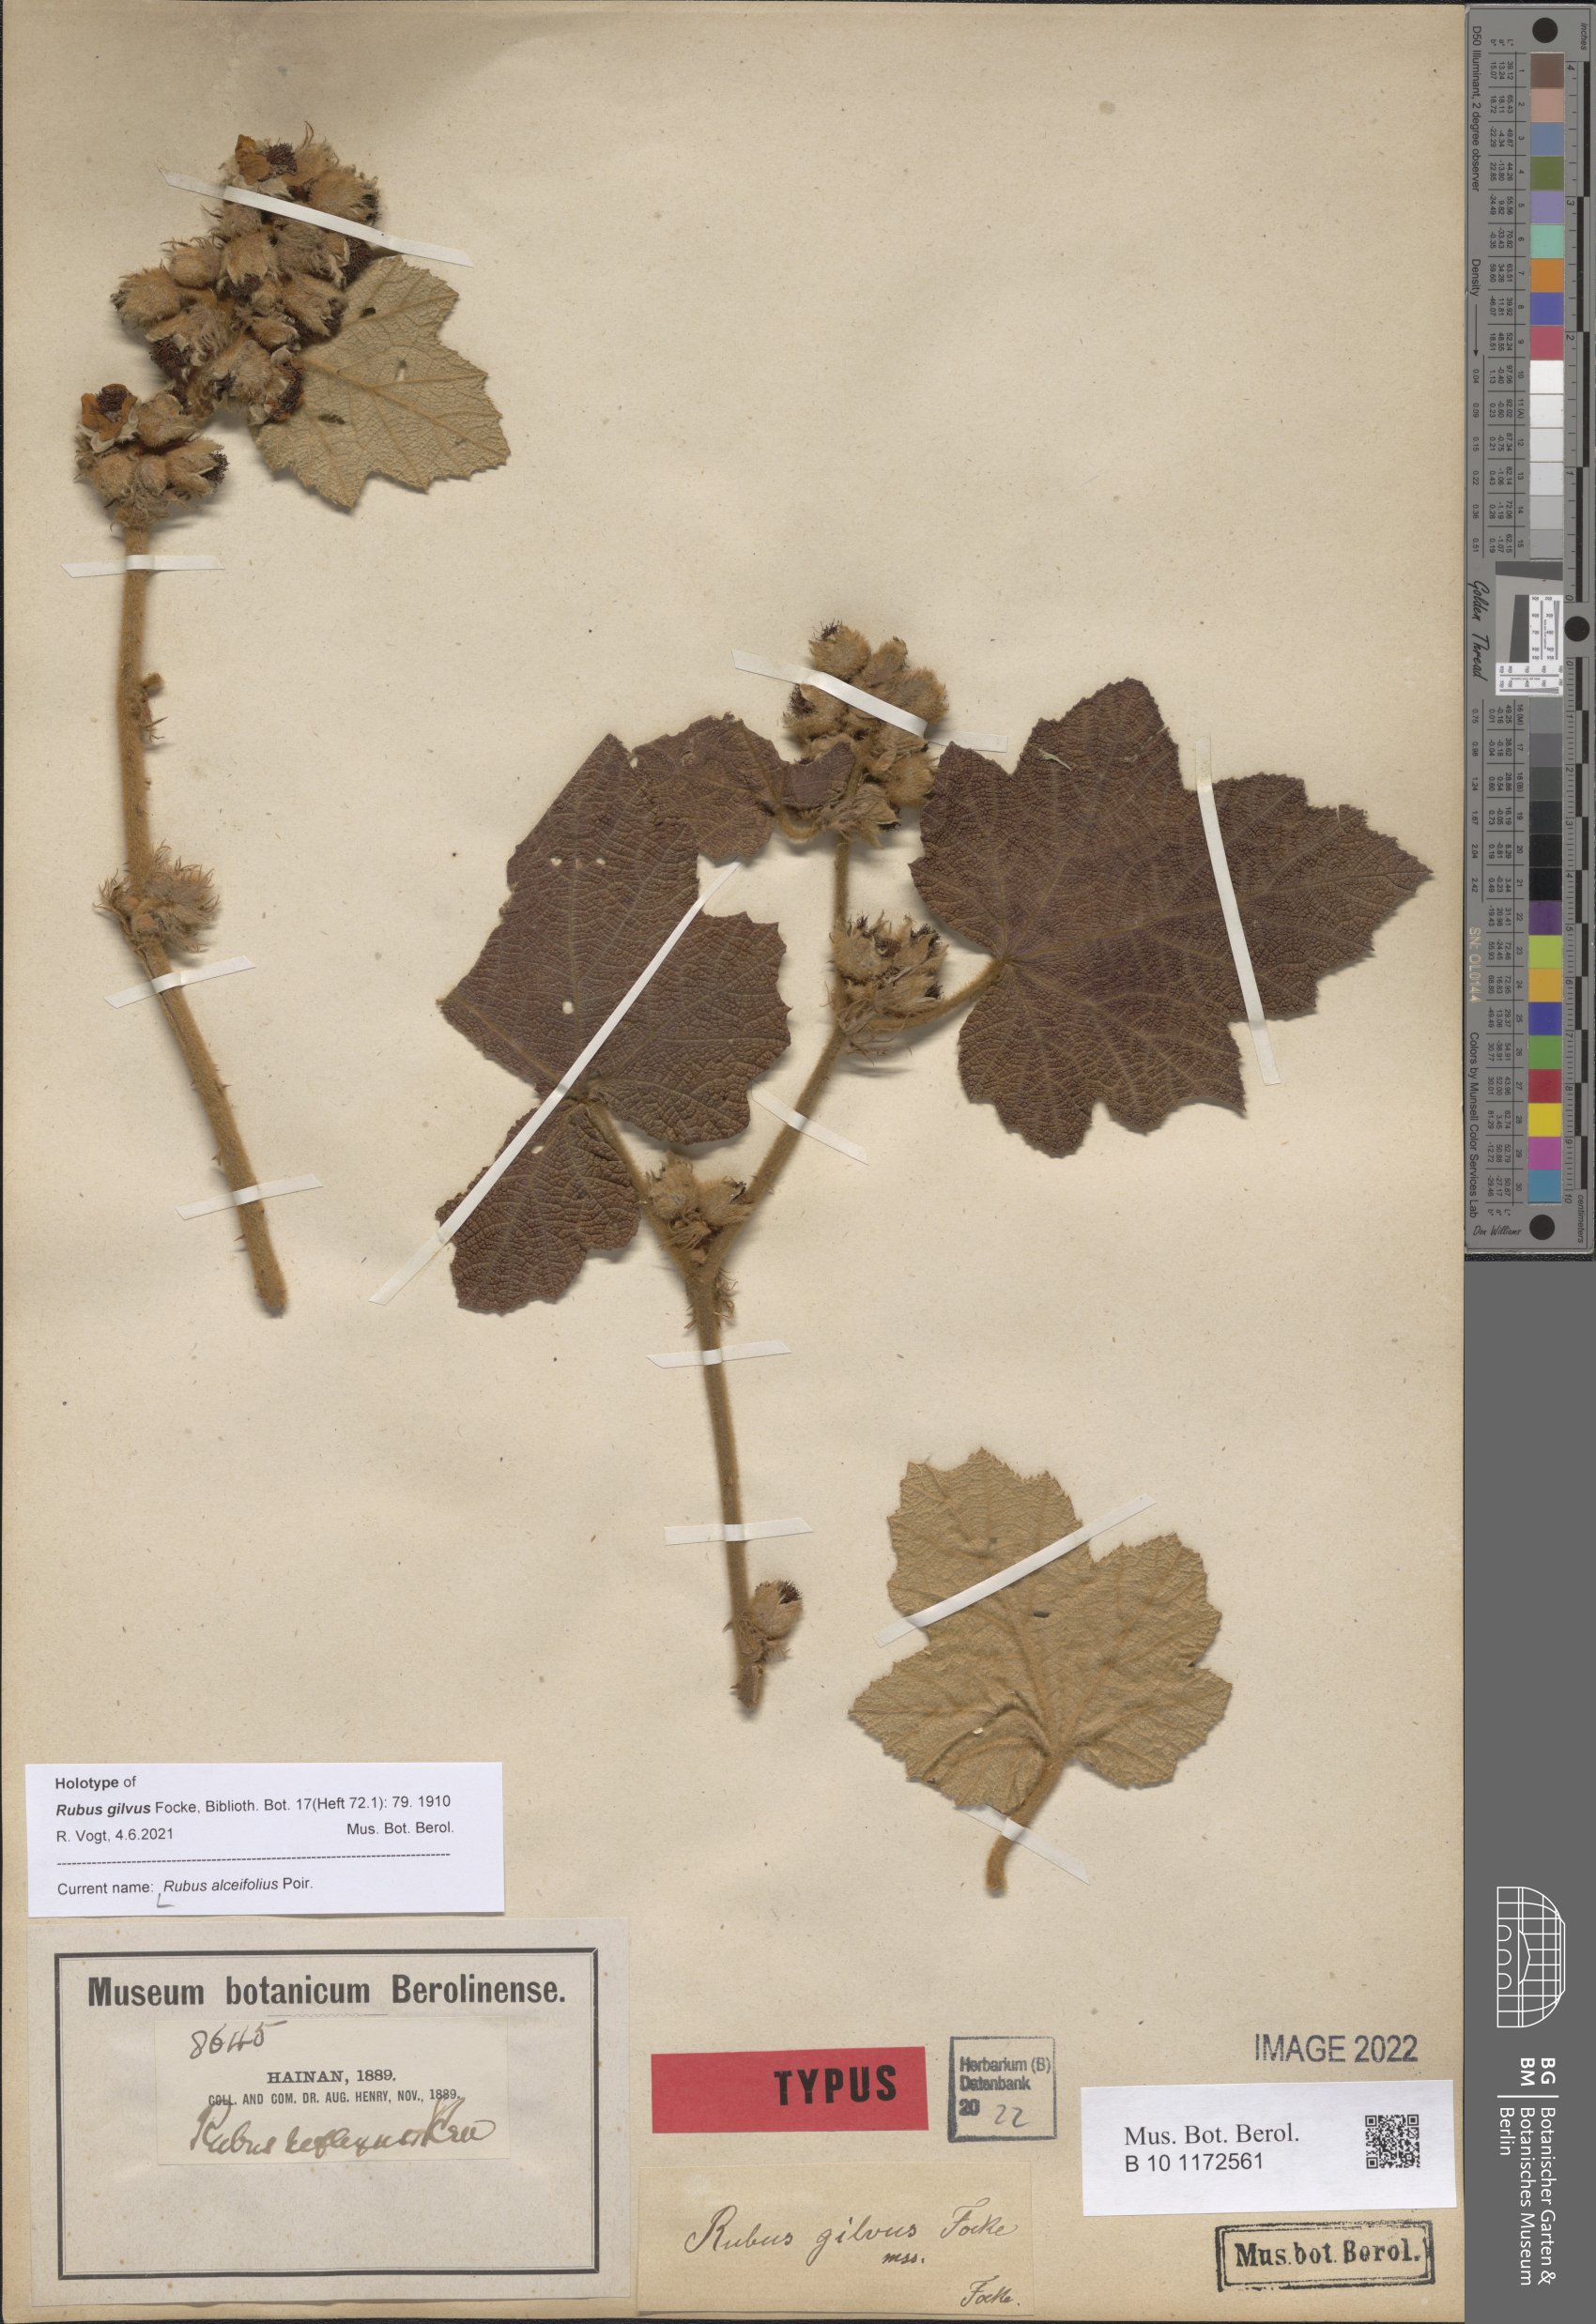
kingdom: Plantae
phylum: Tracheophyta
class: Magnoliopsida
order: Rosales
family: Rosaceae
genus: Rubus
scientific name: Rubus alceifolius
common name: Giant bramble
